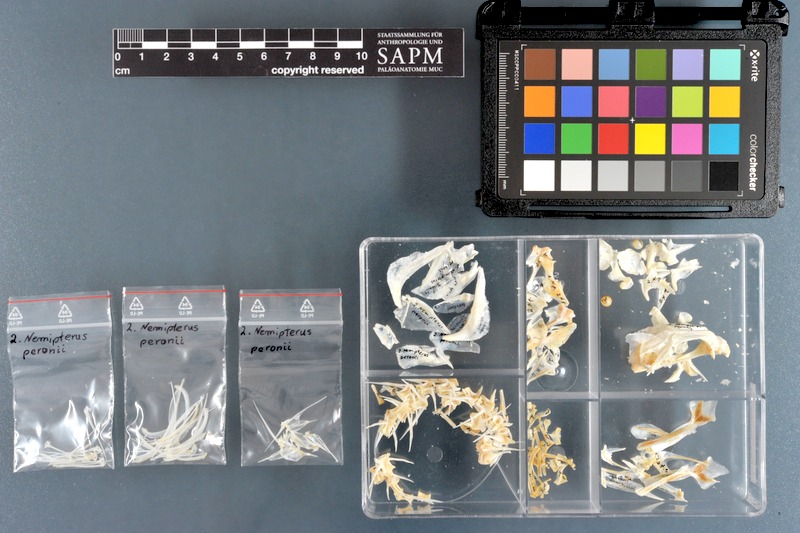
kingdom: Animalia
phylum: Chordata
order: Perciformes
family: Nemipteridae
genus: Nemipterus
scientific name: Nemipterus peronii
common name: Peron's threadfin bream
